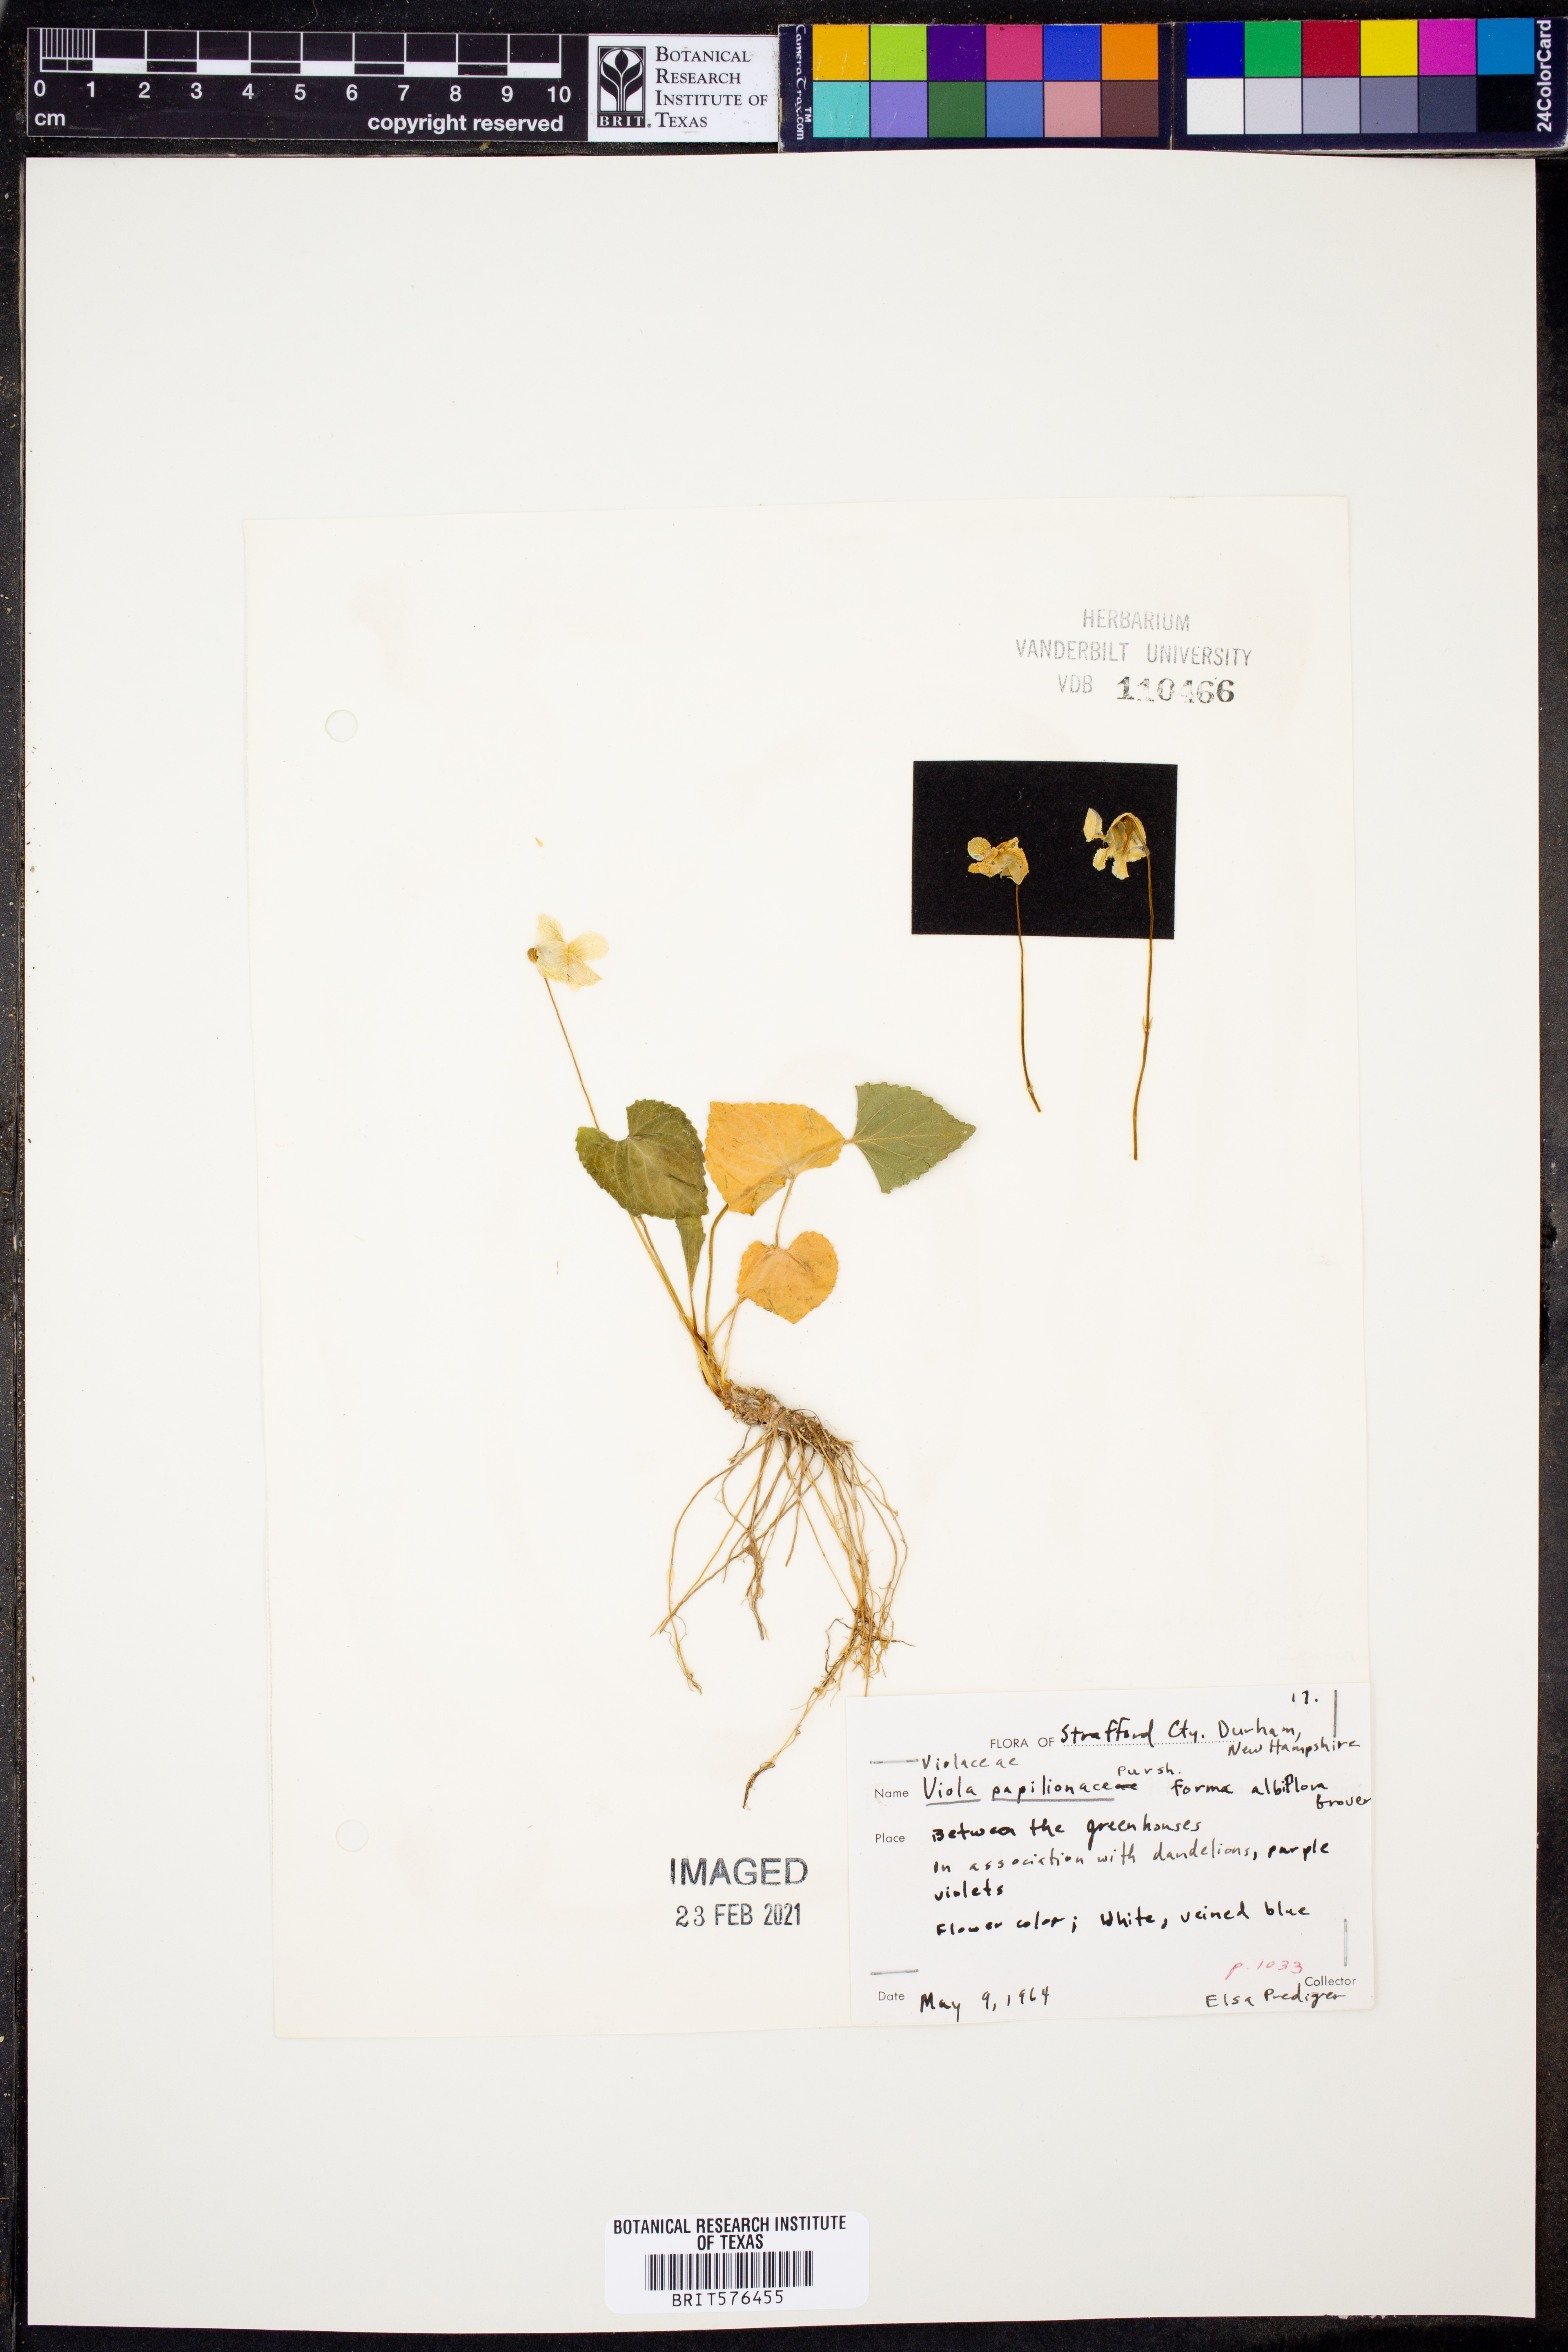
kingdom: Plantae
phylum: Tracheophyta
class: Magnoliopsida
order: Malpighiales
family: Violaceae
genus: Viola
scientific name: Viola sororia
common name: Dooryard violet
